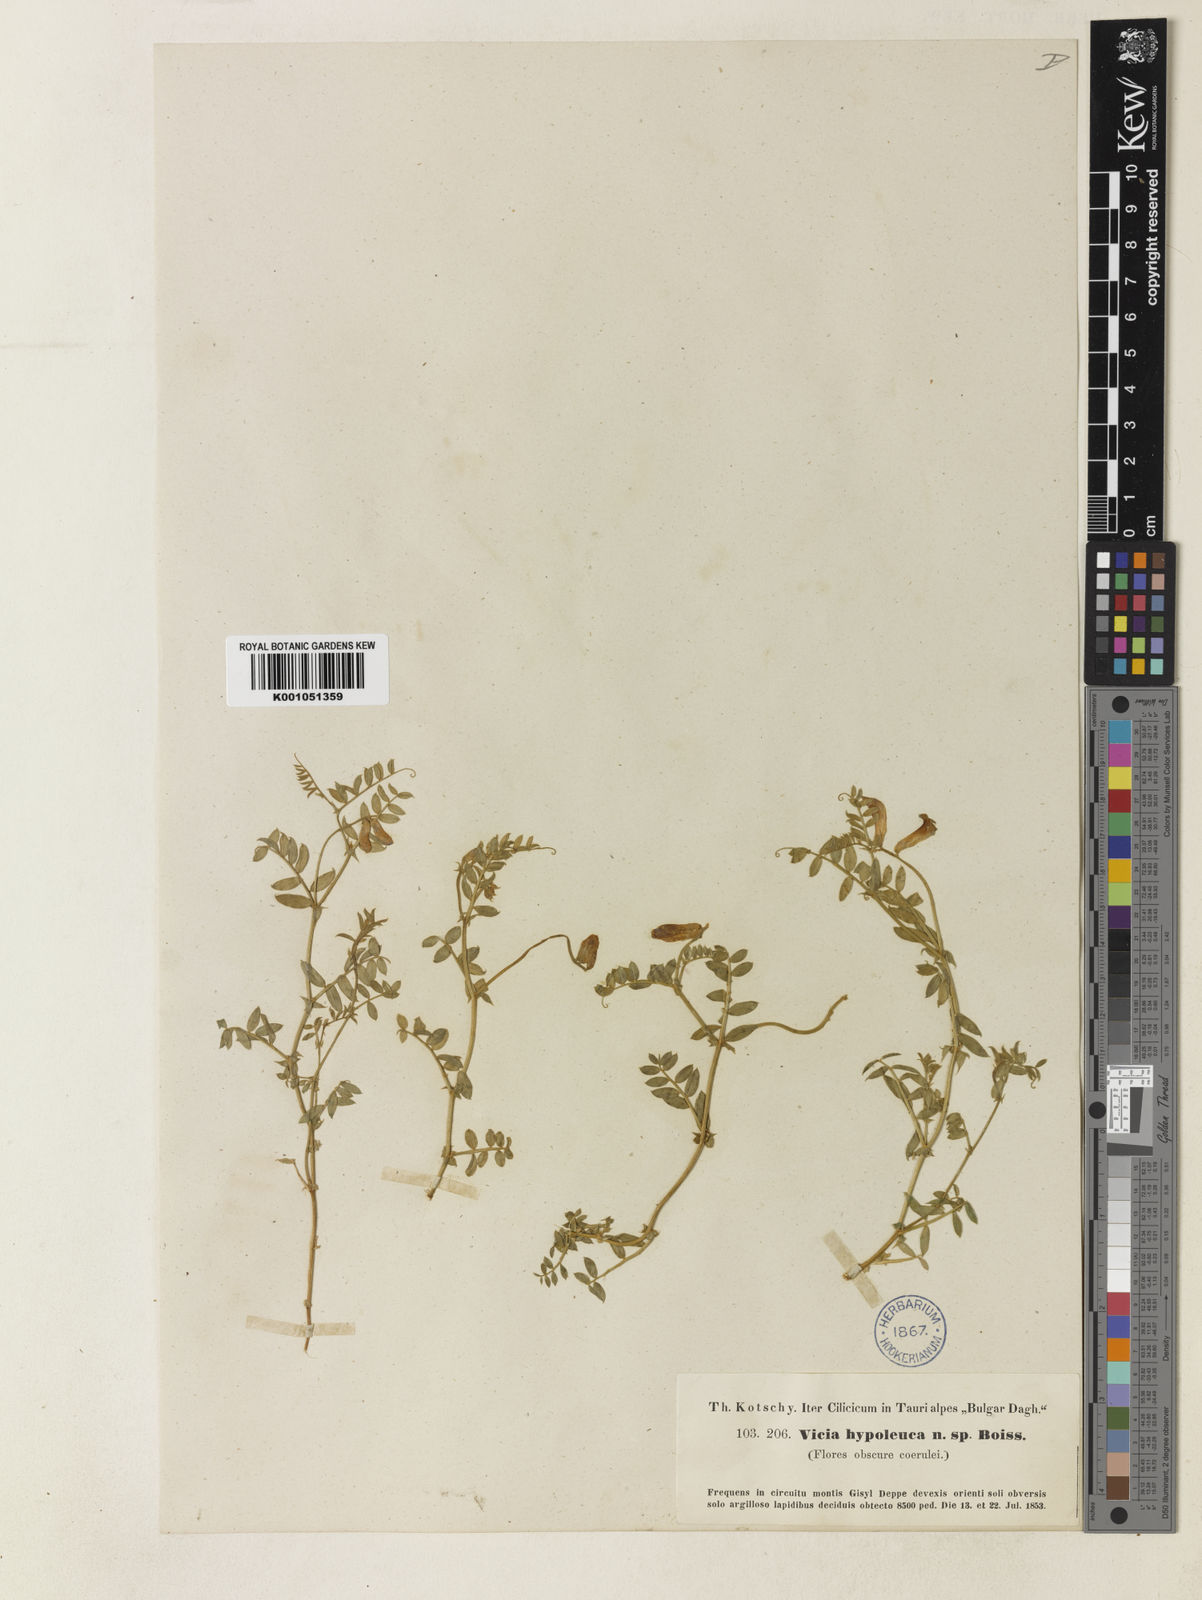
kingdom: Plantae
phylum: Tracheophyta
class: Magnoliopsida
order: Fabales
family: Fabaceae
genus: Vicia
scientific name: Vicia alpestris
